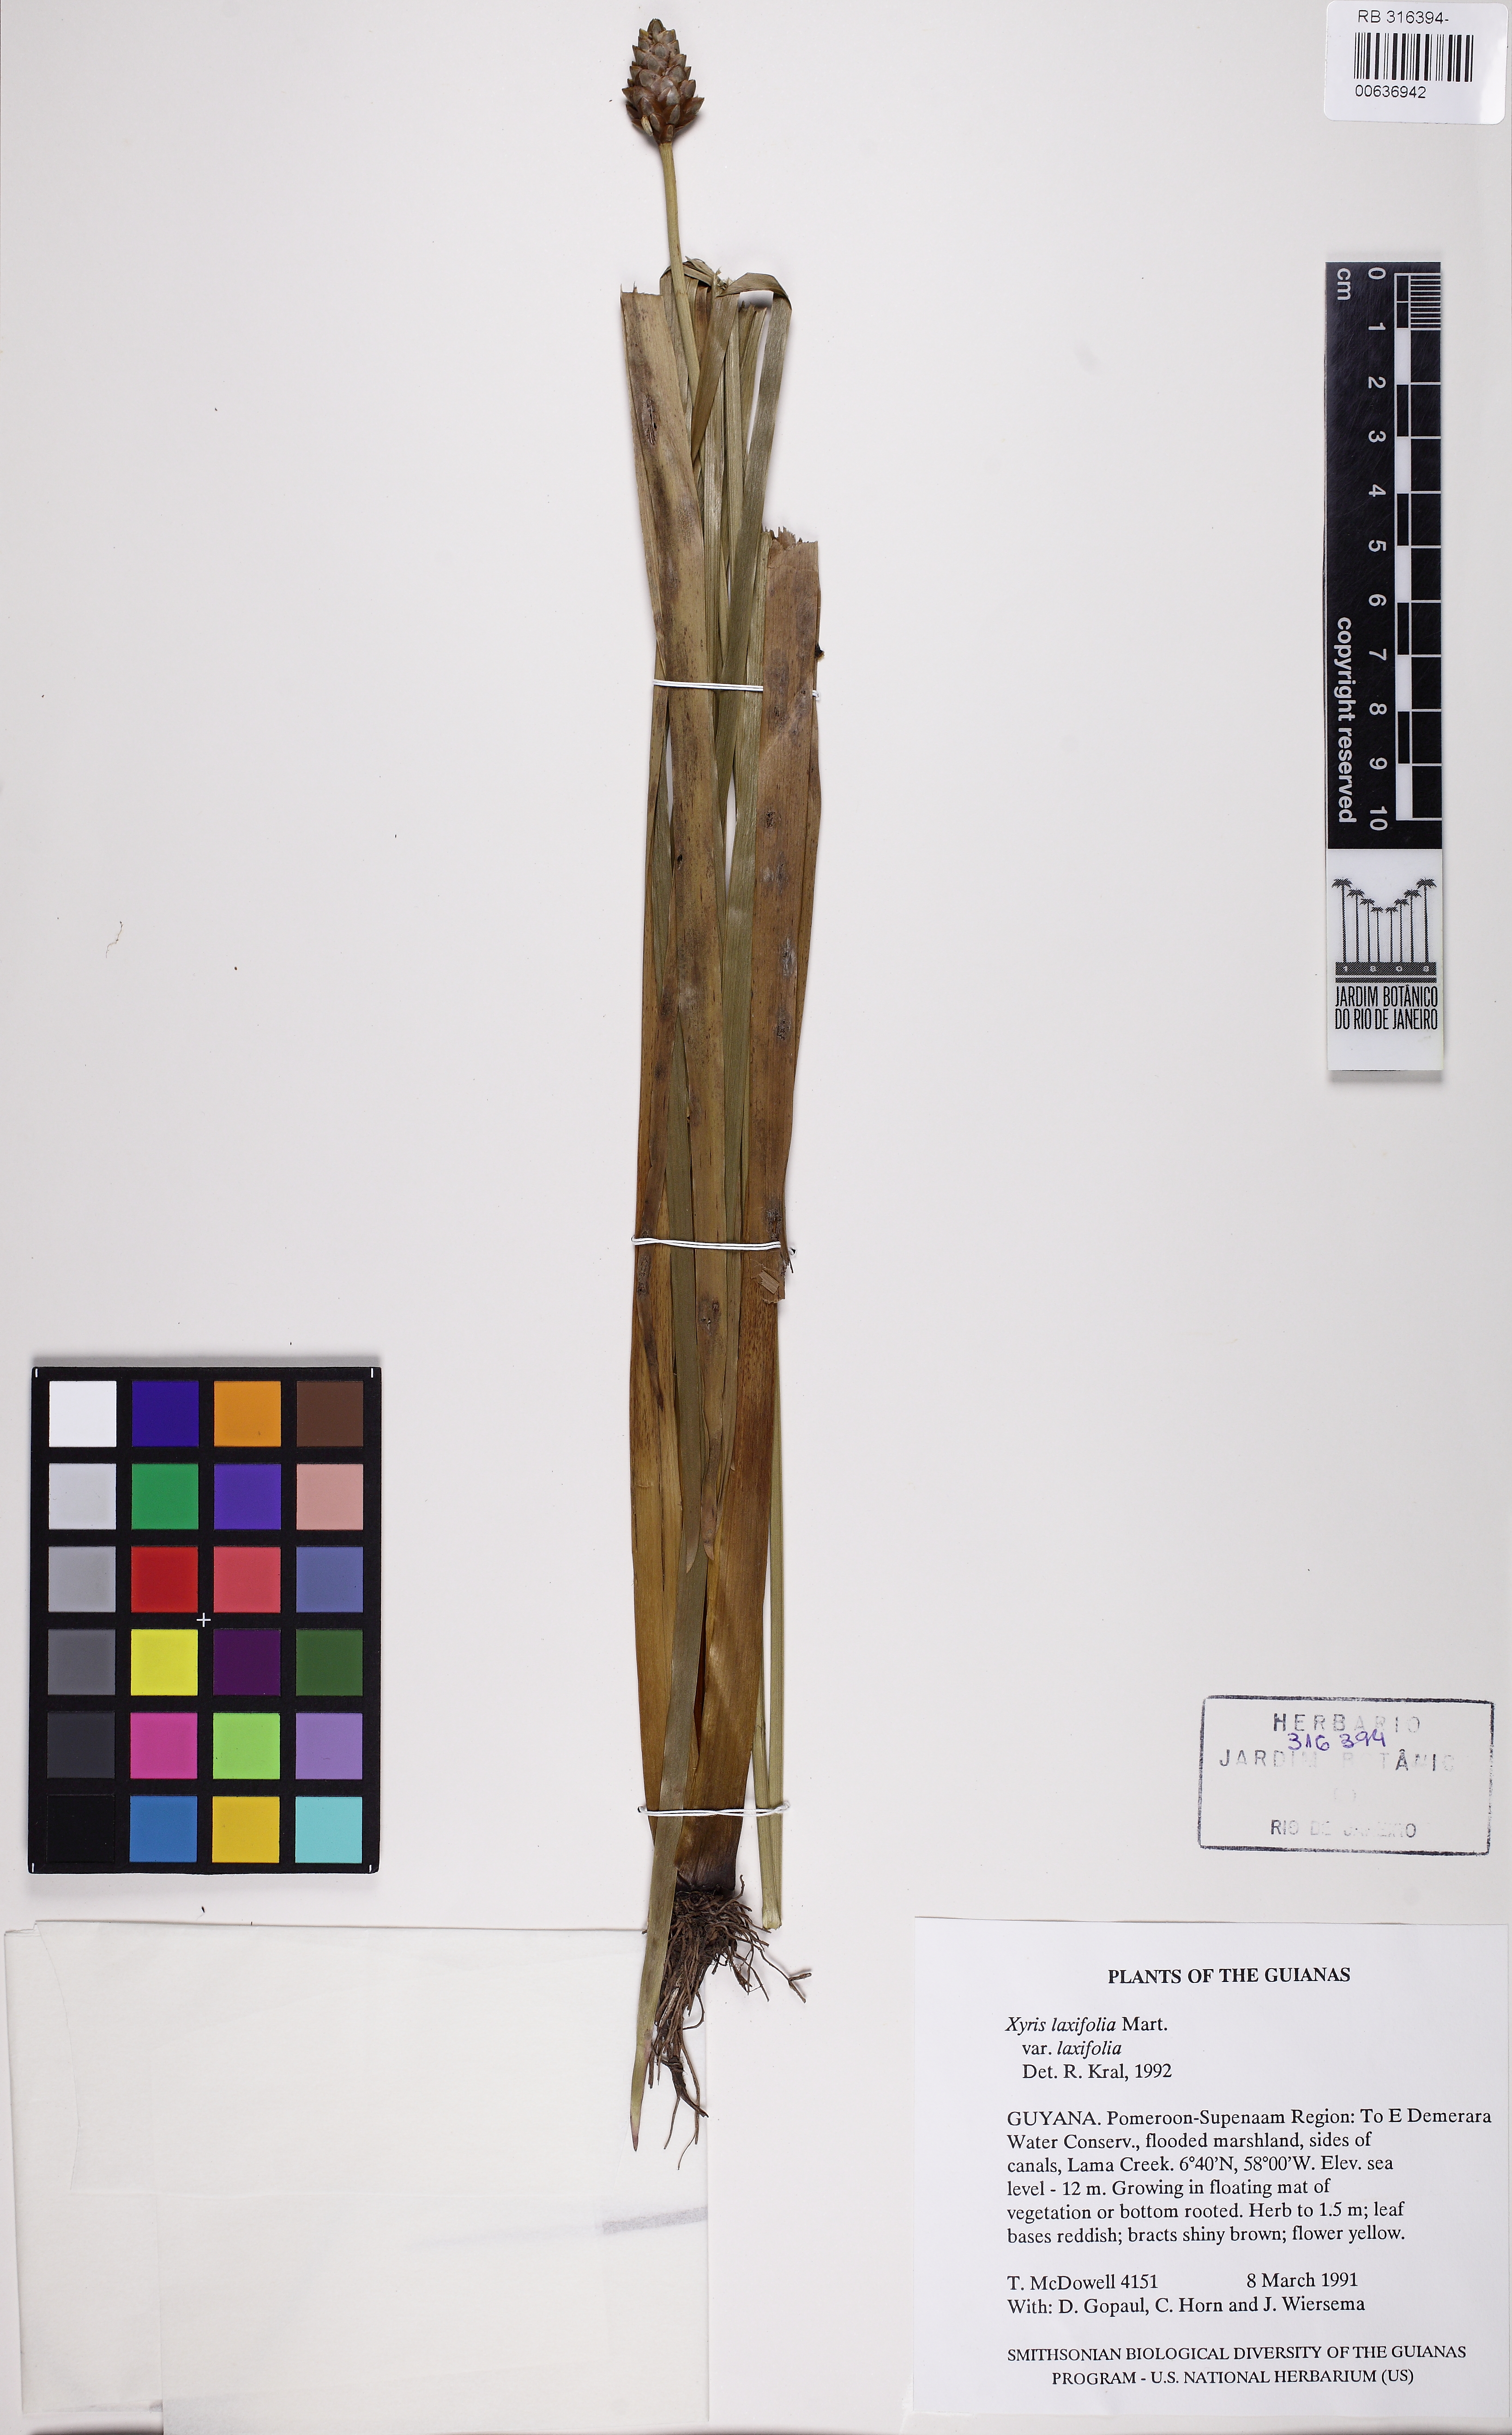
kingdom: Plantae
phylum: Tracheophyta
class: Liliopsida
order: Poales
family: Xyridaceae
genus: Xyris
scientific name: Xyris jupicai
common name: Richard's yelloweyed grass
